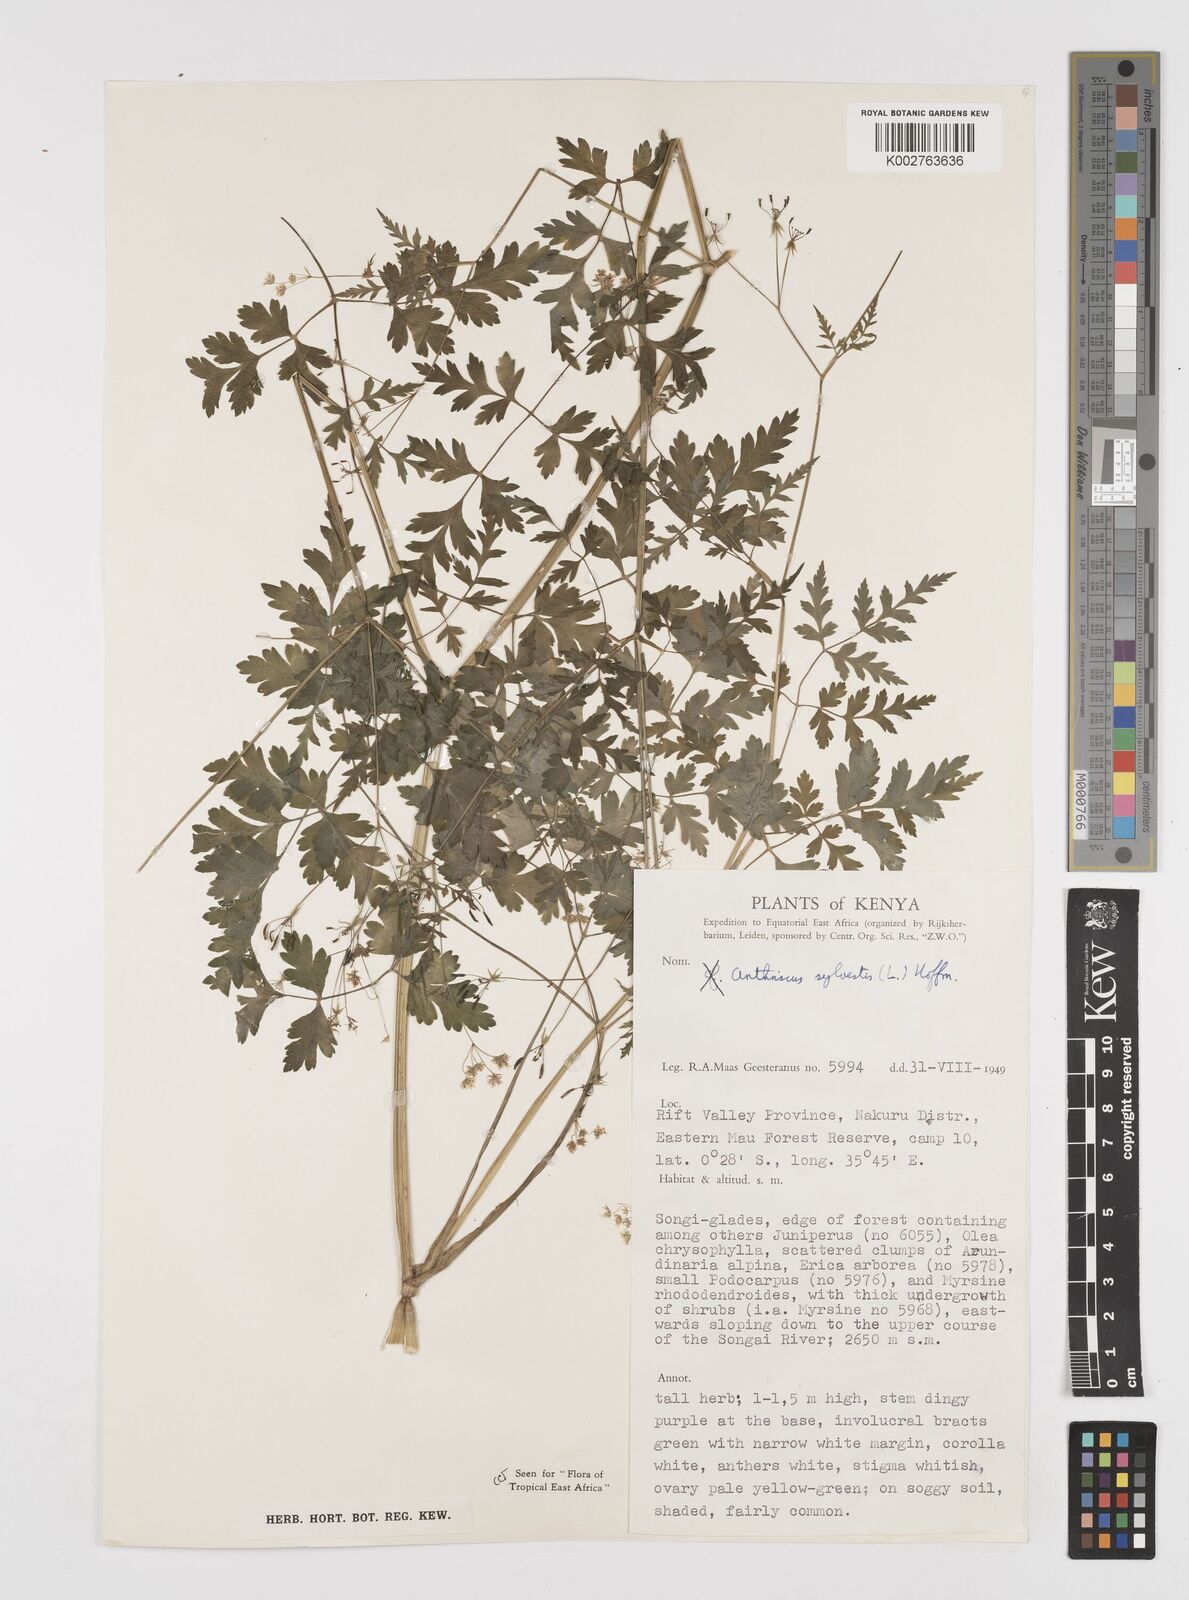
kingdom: Plantae
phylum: Tracheophyta
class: Magnoliopsida
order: Apiales
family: Apiaceae
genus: Anthriscus
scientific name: Anthriscus sylvestris
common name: Cow parsley
